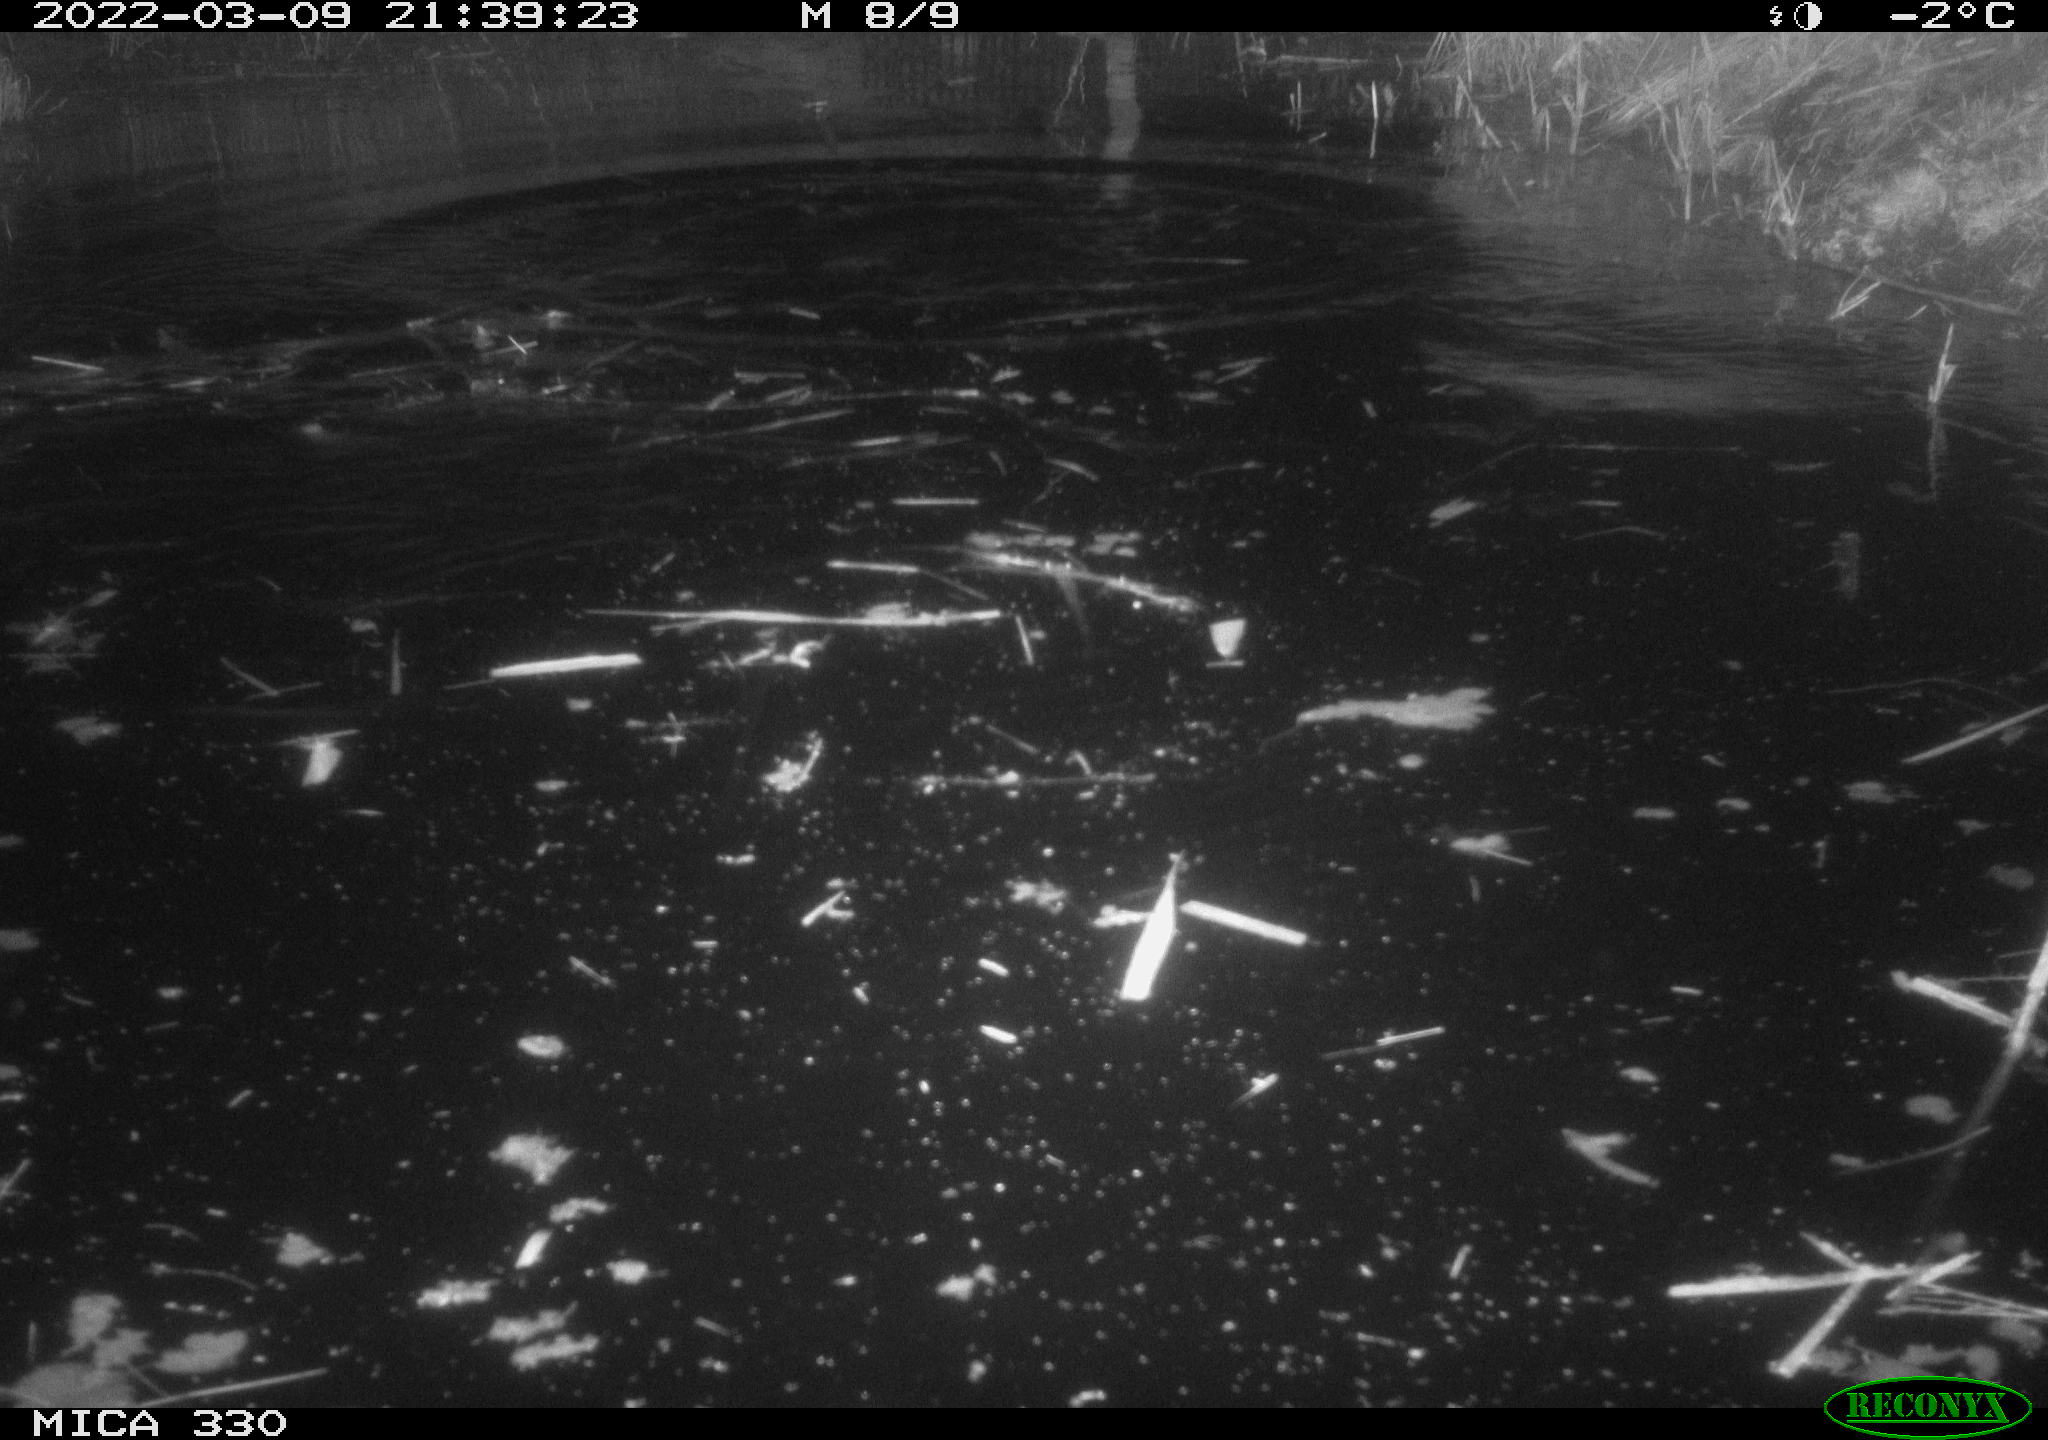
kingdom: Animalia
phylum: Chordata
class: Aves
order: Anseriformes
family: Anatidae
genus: Anas
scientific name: Anas platyrhynchos
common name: Mallard
